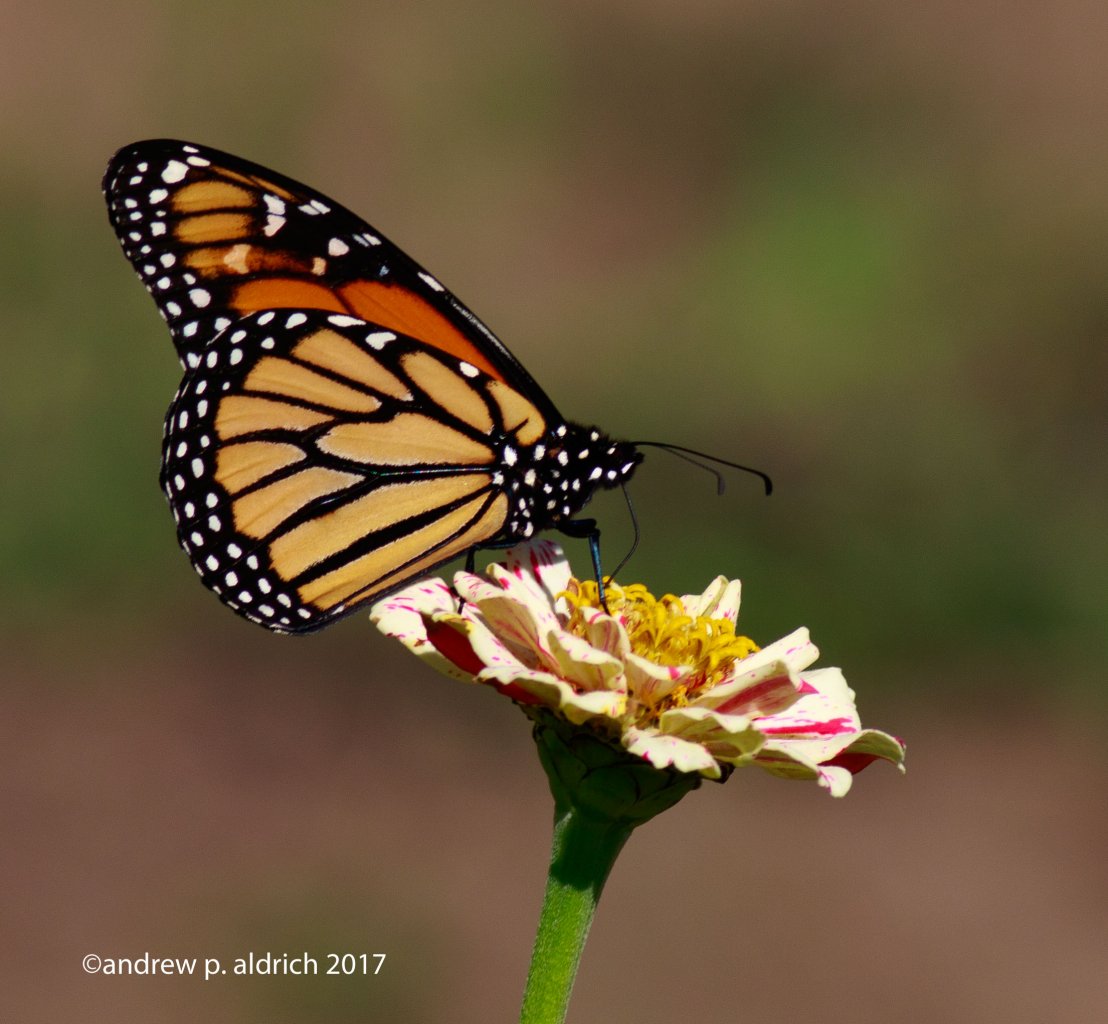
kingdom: Animalia
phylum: Arthropoda
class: Insecta
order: Lepidoptera
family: Nymphalidae
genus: Danaus
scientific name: Danaus plexippus
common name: Monarch
